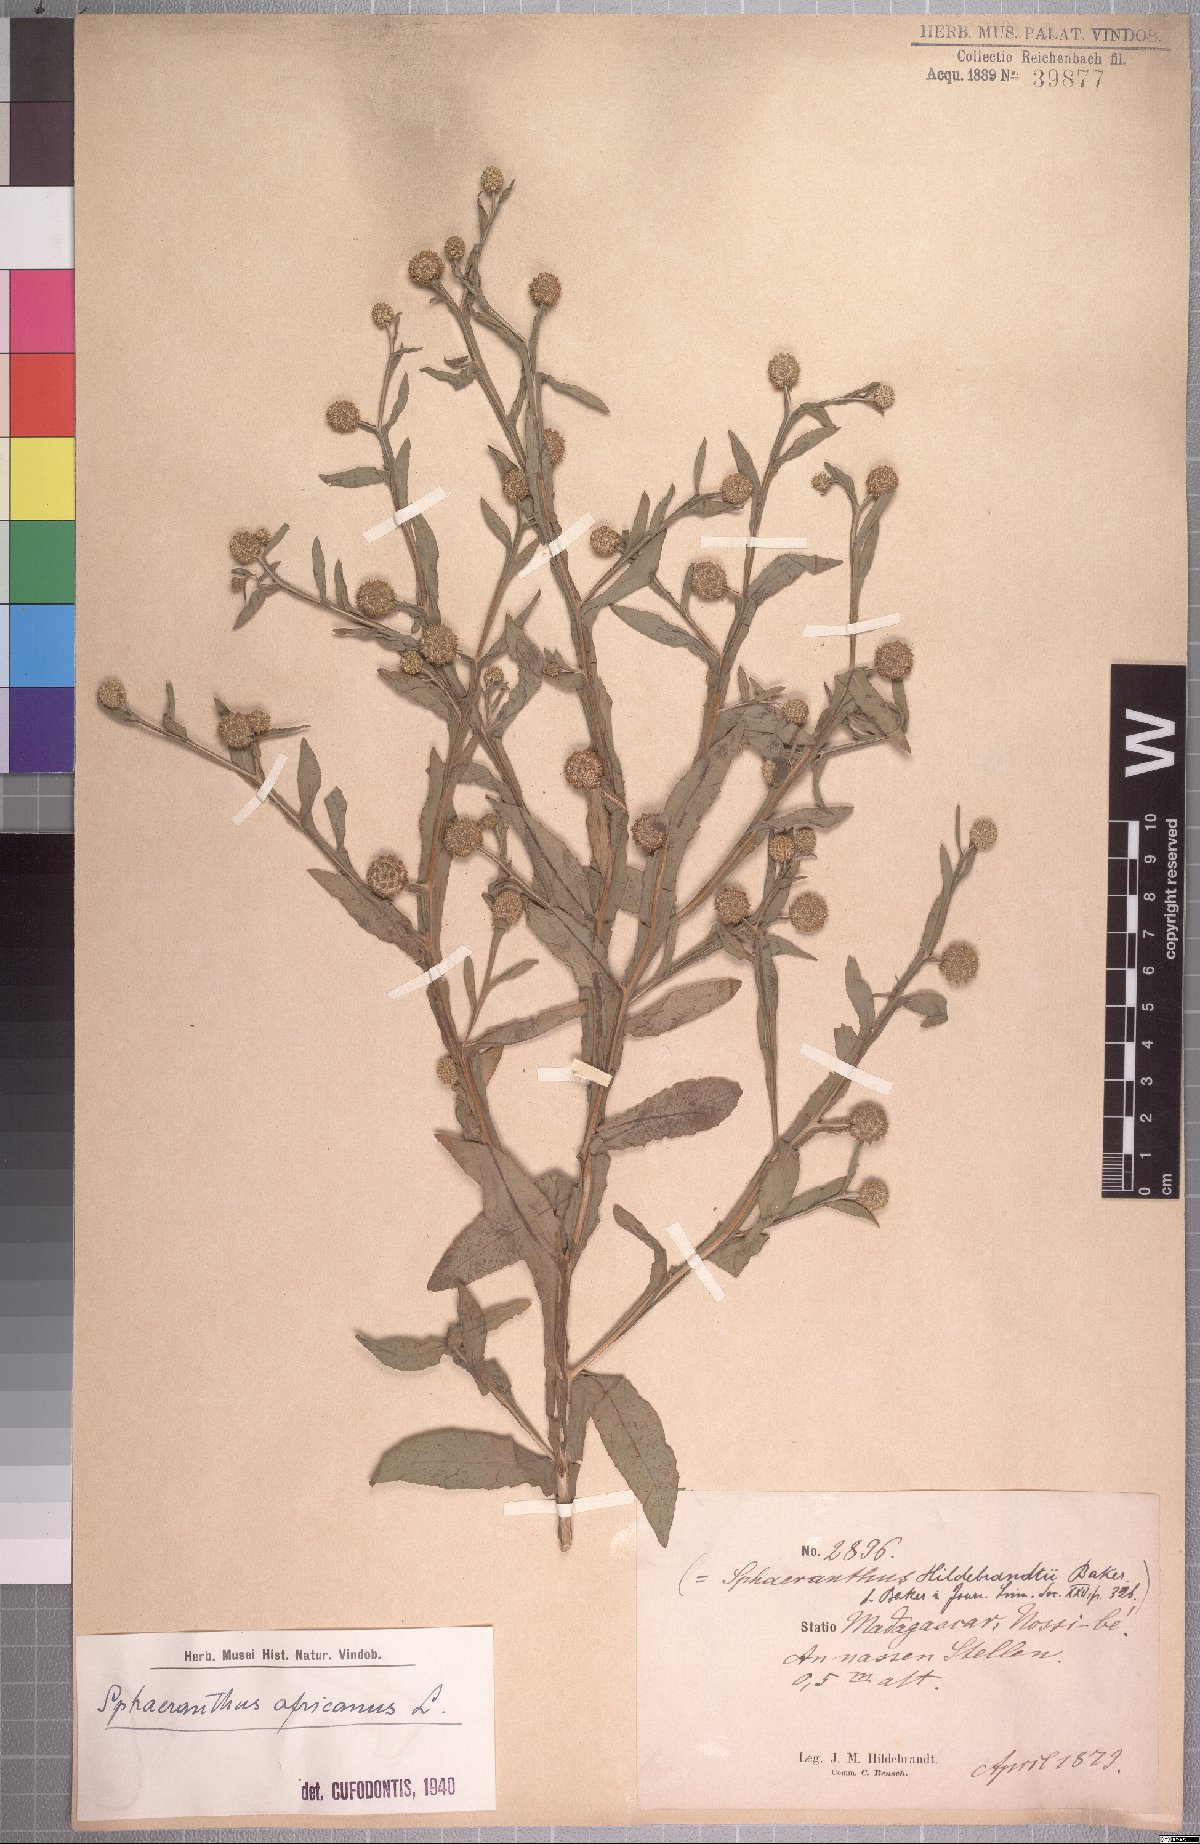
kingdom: Plantae
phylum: Tracheophyta
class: Magnoliopsida
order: Asterales
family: Asteraceae
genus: Sphaeranthus
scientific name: Sphaeranthus africanus
